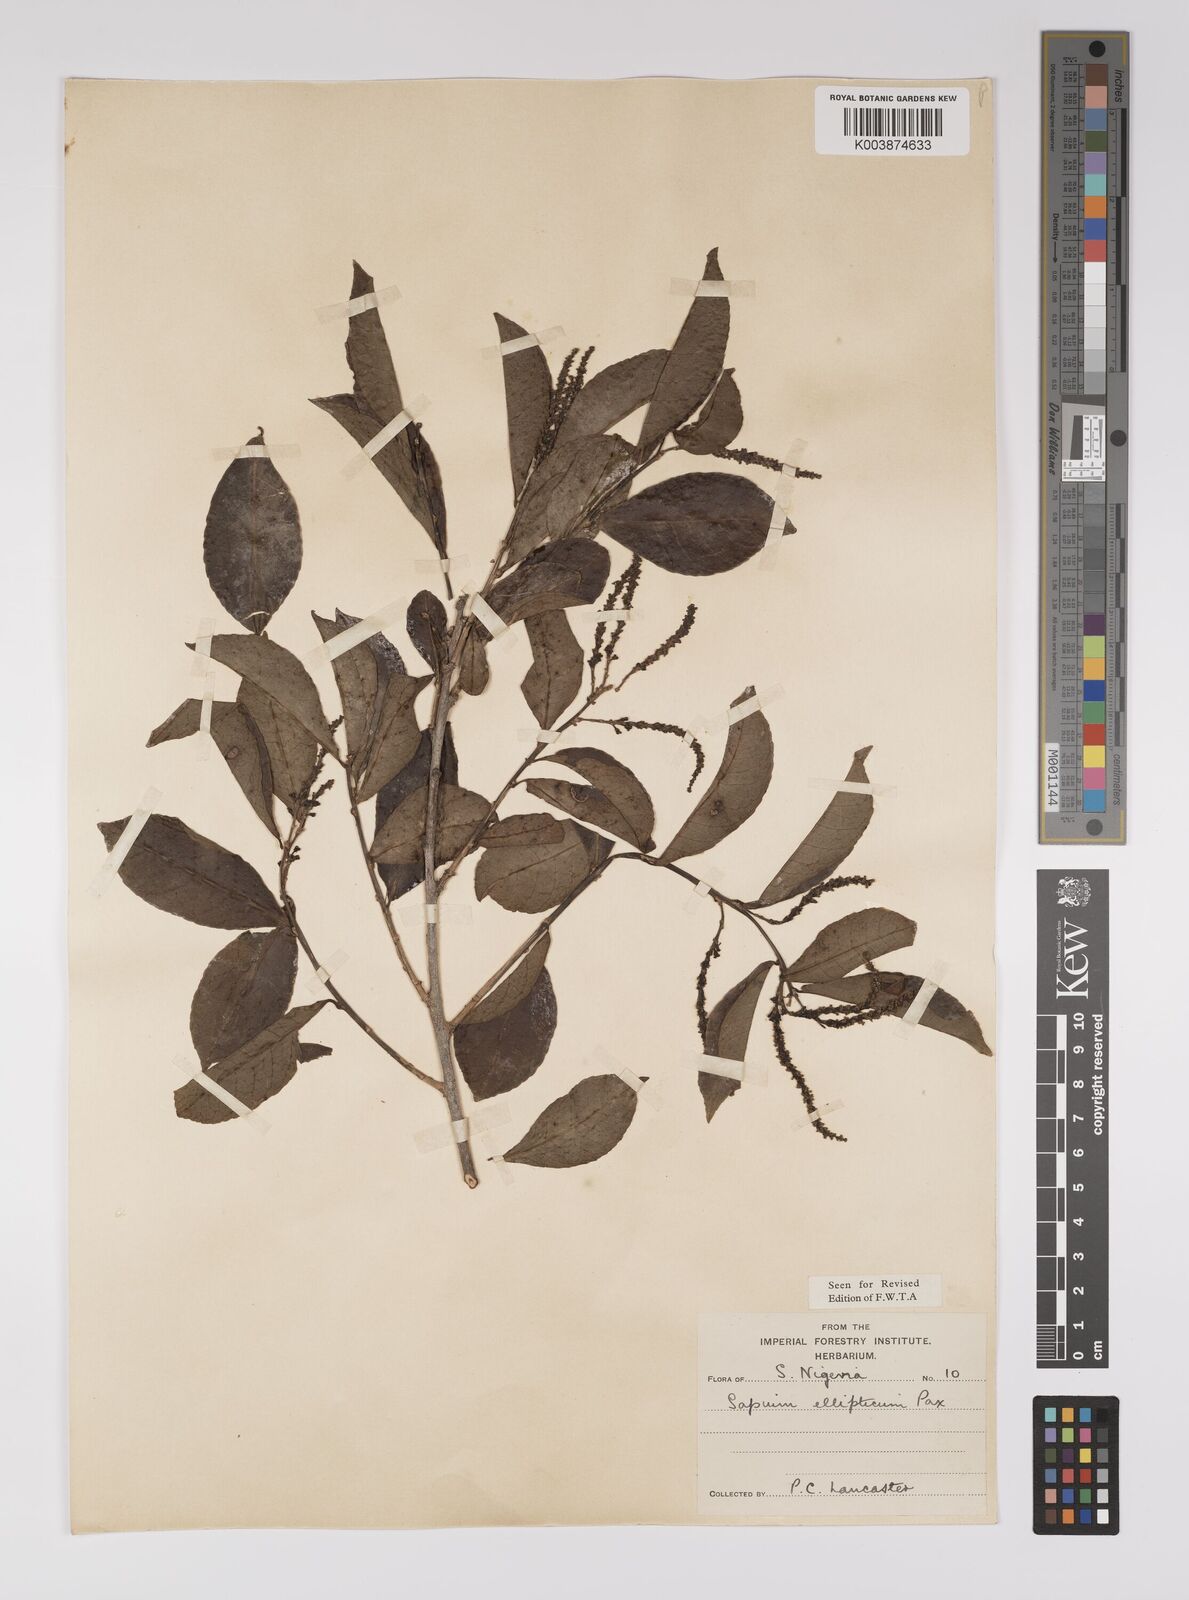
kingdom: Plantae
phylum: Tracheophyta
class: Magnoliopsida
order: Malpighiales
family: Euphorbiaceae
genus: Shirakiopsis
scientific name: Shirakiopsis elliptica
